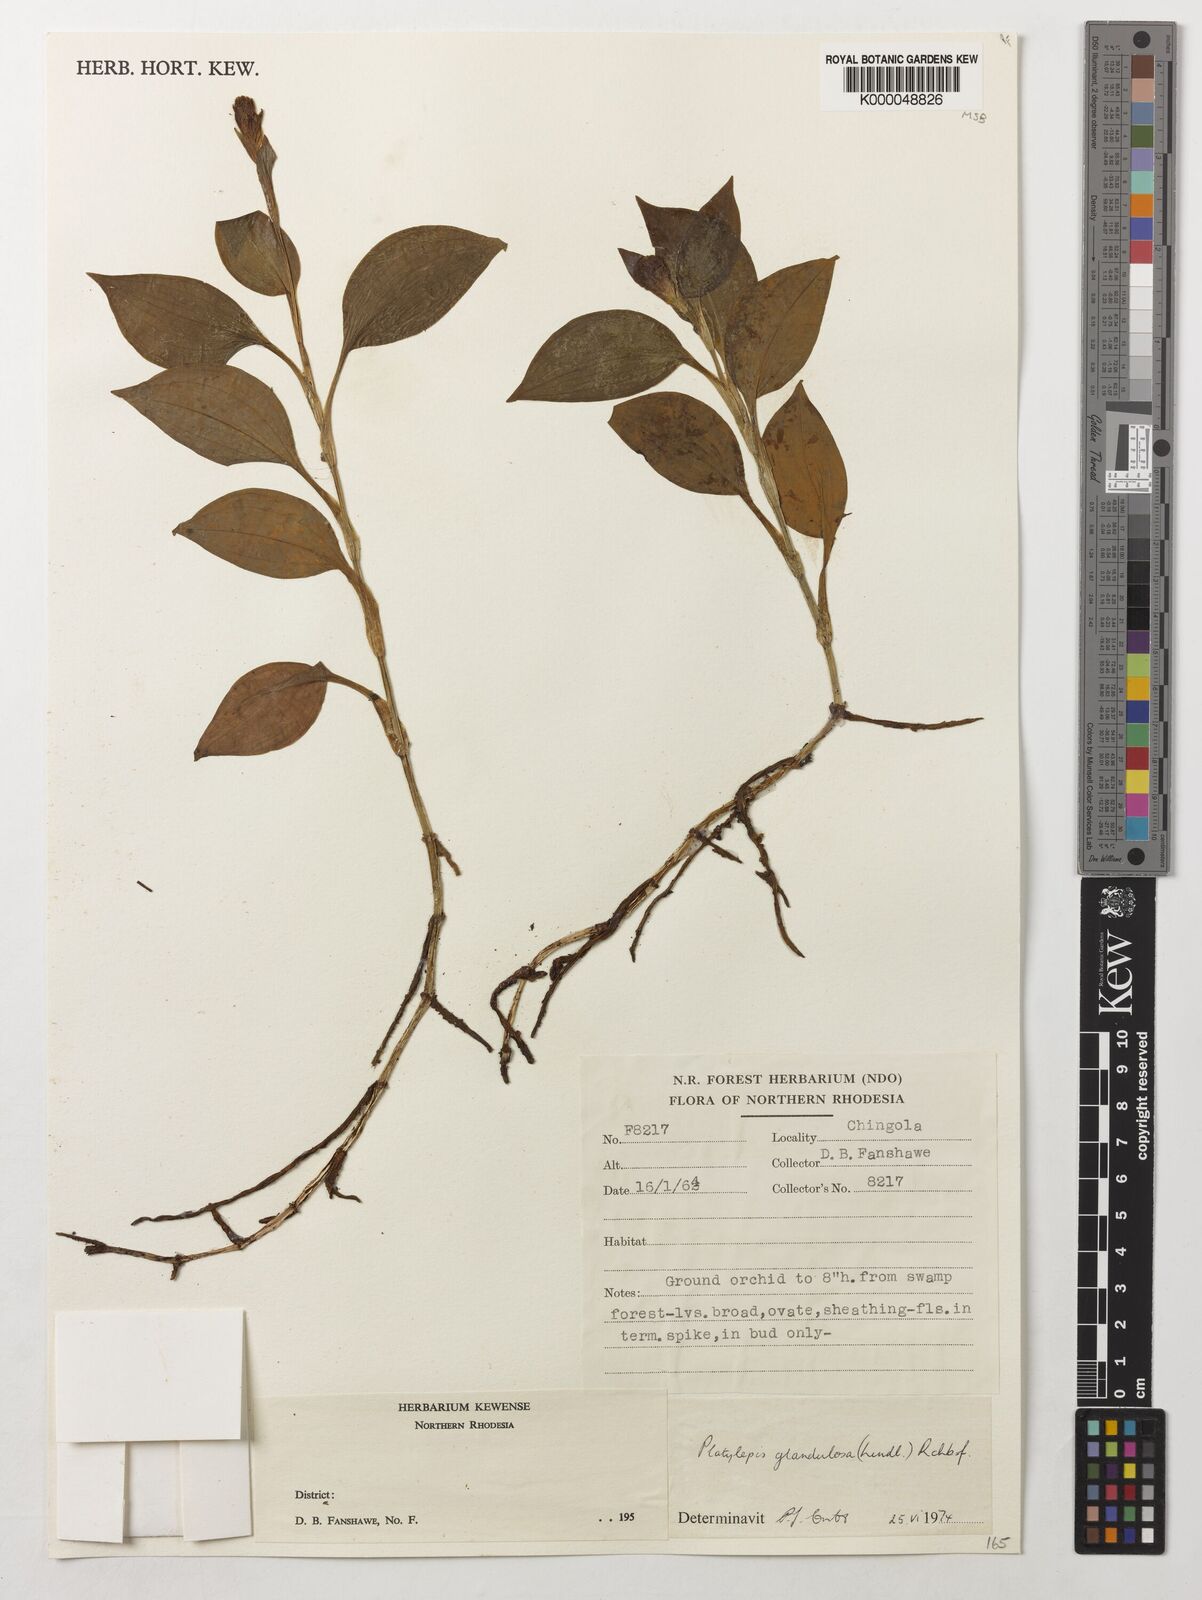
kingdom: Plantae
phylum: Tracheophyta
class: Liliopsida
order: Asparagales
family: Orchidaceae
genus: Platylepis
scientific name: Platylepis glandulosa
